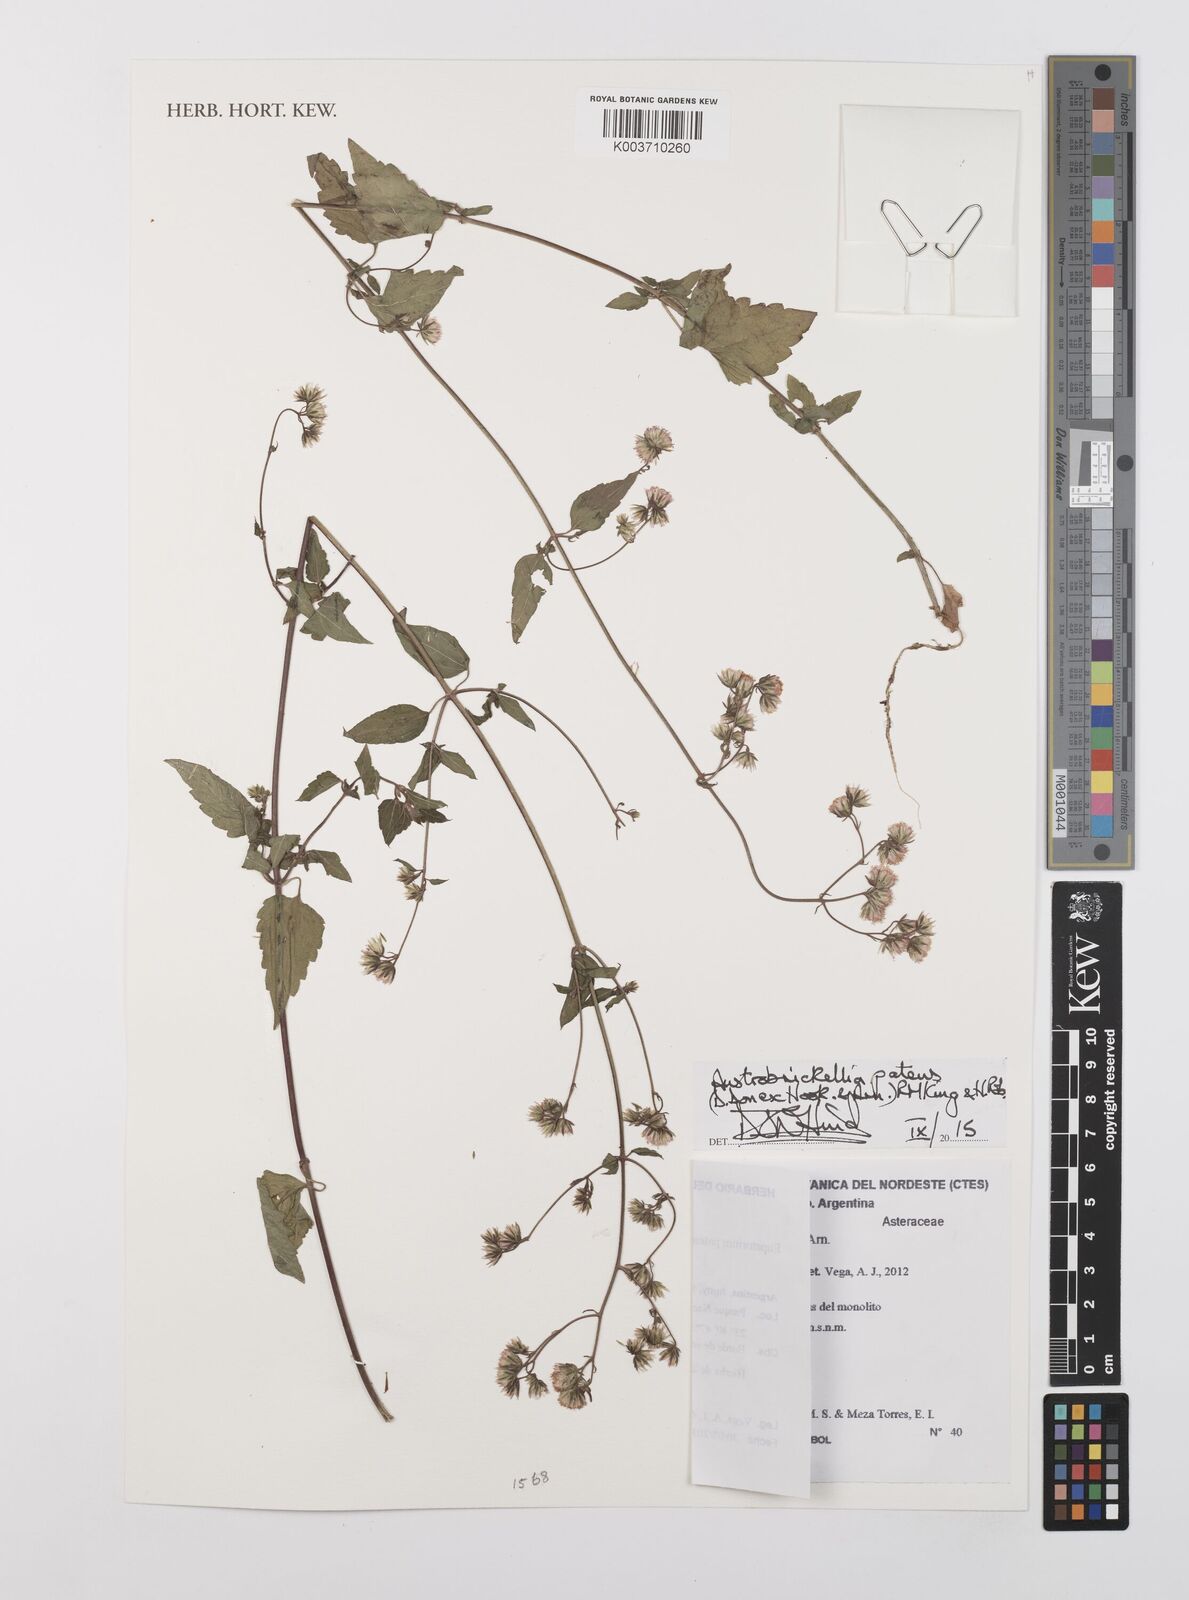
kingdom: Plantae
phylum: Tracheophyta
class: Magnoliopsida
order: Asterales
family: Asteraceae
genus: Austrobrickellia
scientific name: Austrobrickellia patens
